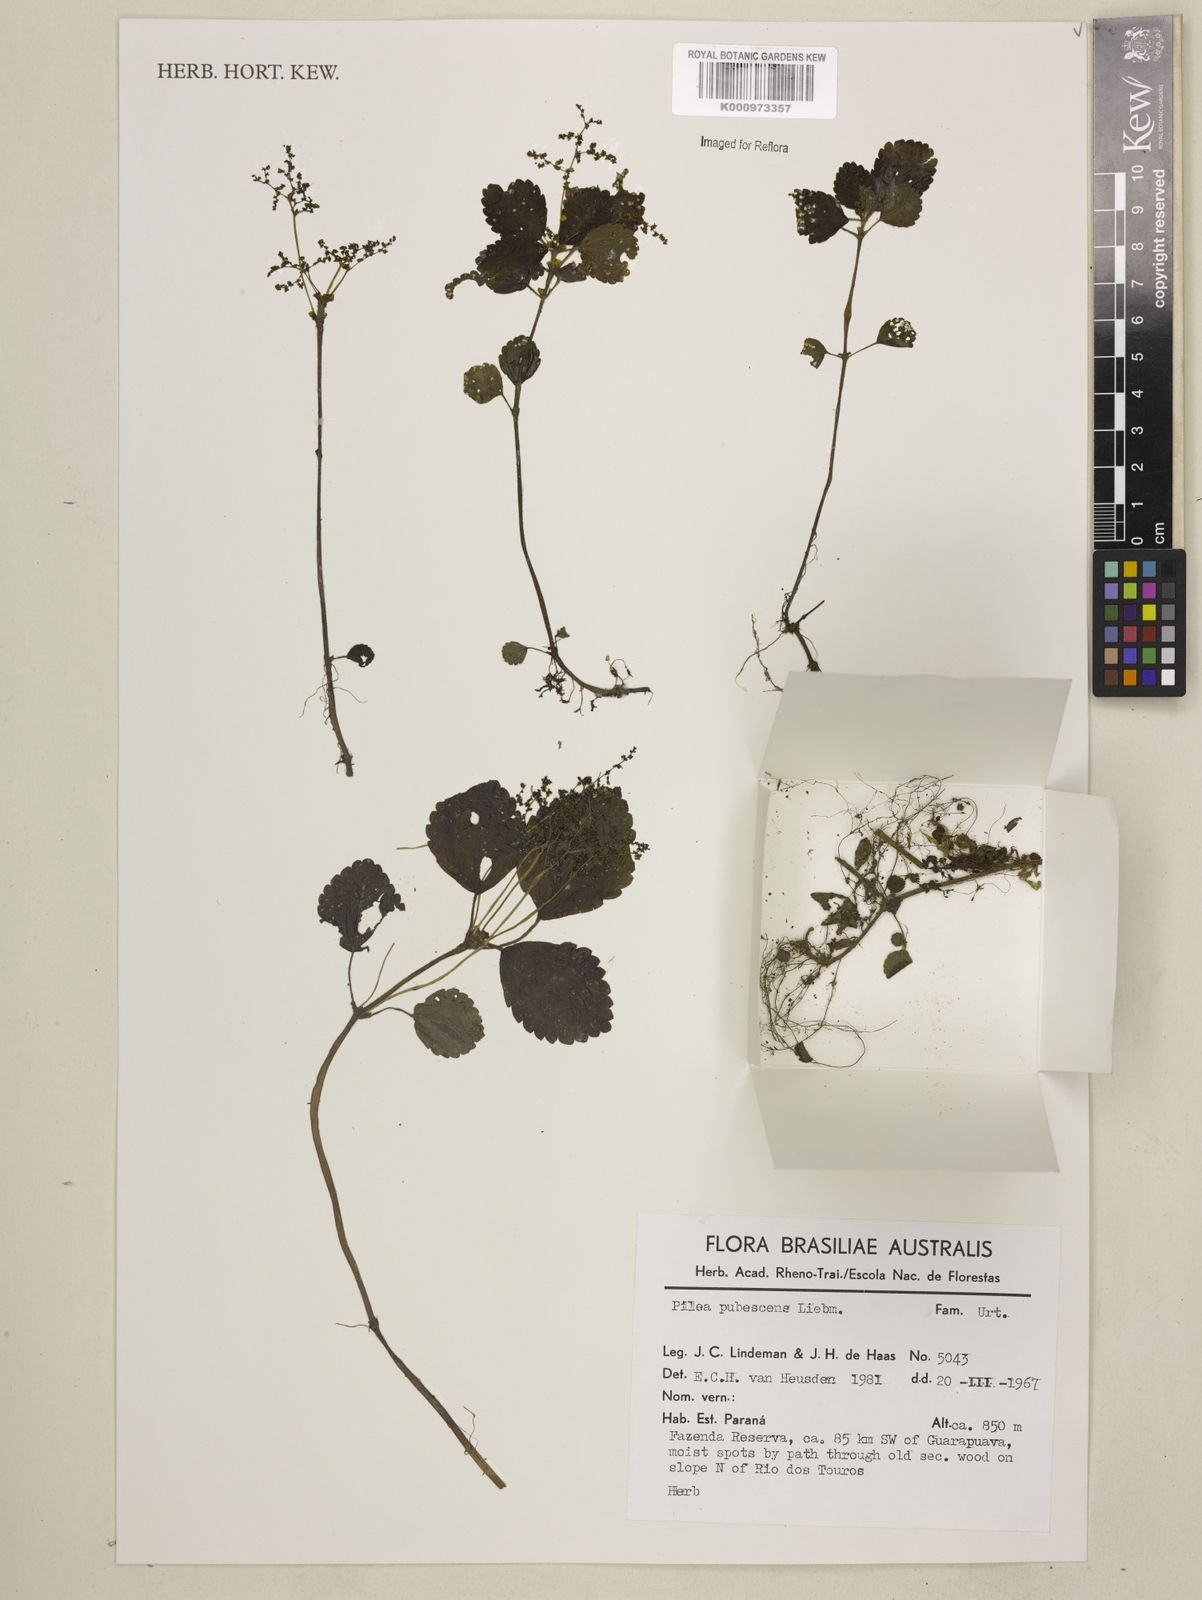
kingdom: Plantae
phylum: Tracheophyta
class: Magnoliopsida
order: Rosales
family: Urticaceae
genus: Pilea
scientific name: Pilea
